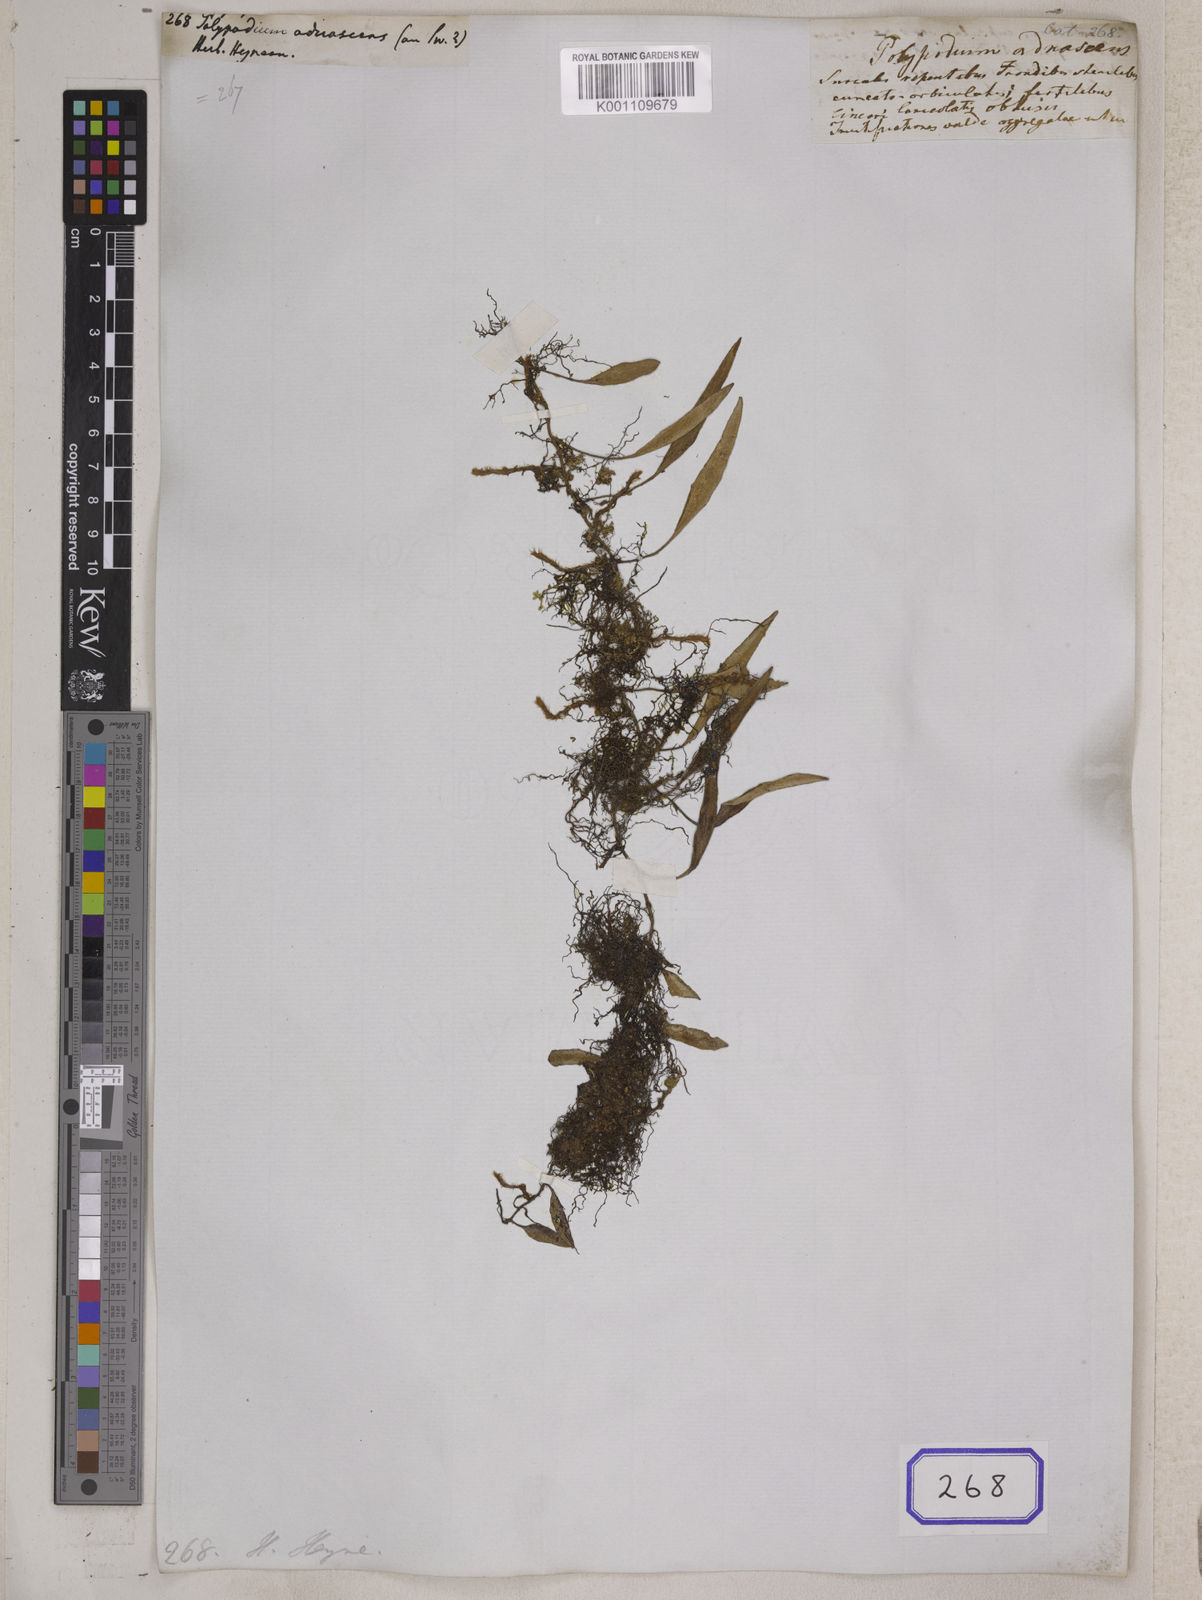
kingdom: Plantae
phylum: Tracheophyta
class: Polypodiopsida
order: Polypodiales
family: Polypodiaceae
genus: Pyrrosia
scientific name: Pyrrosia adnascens
